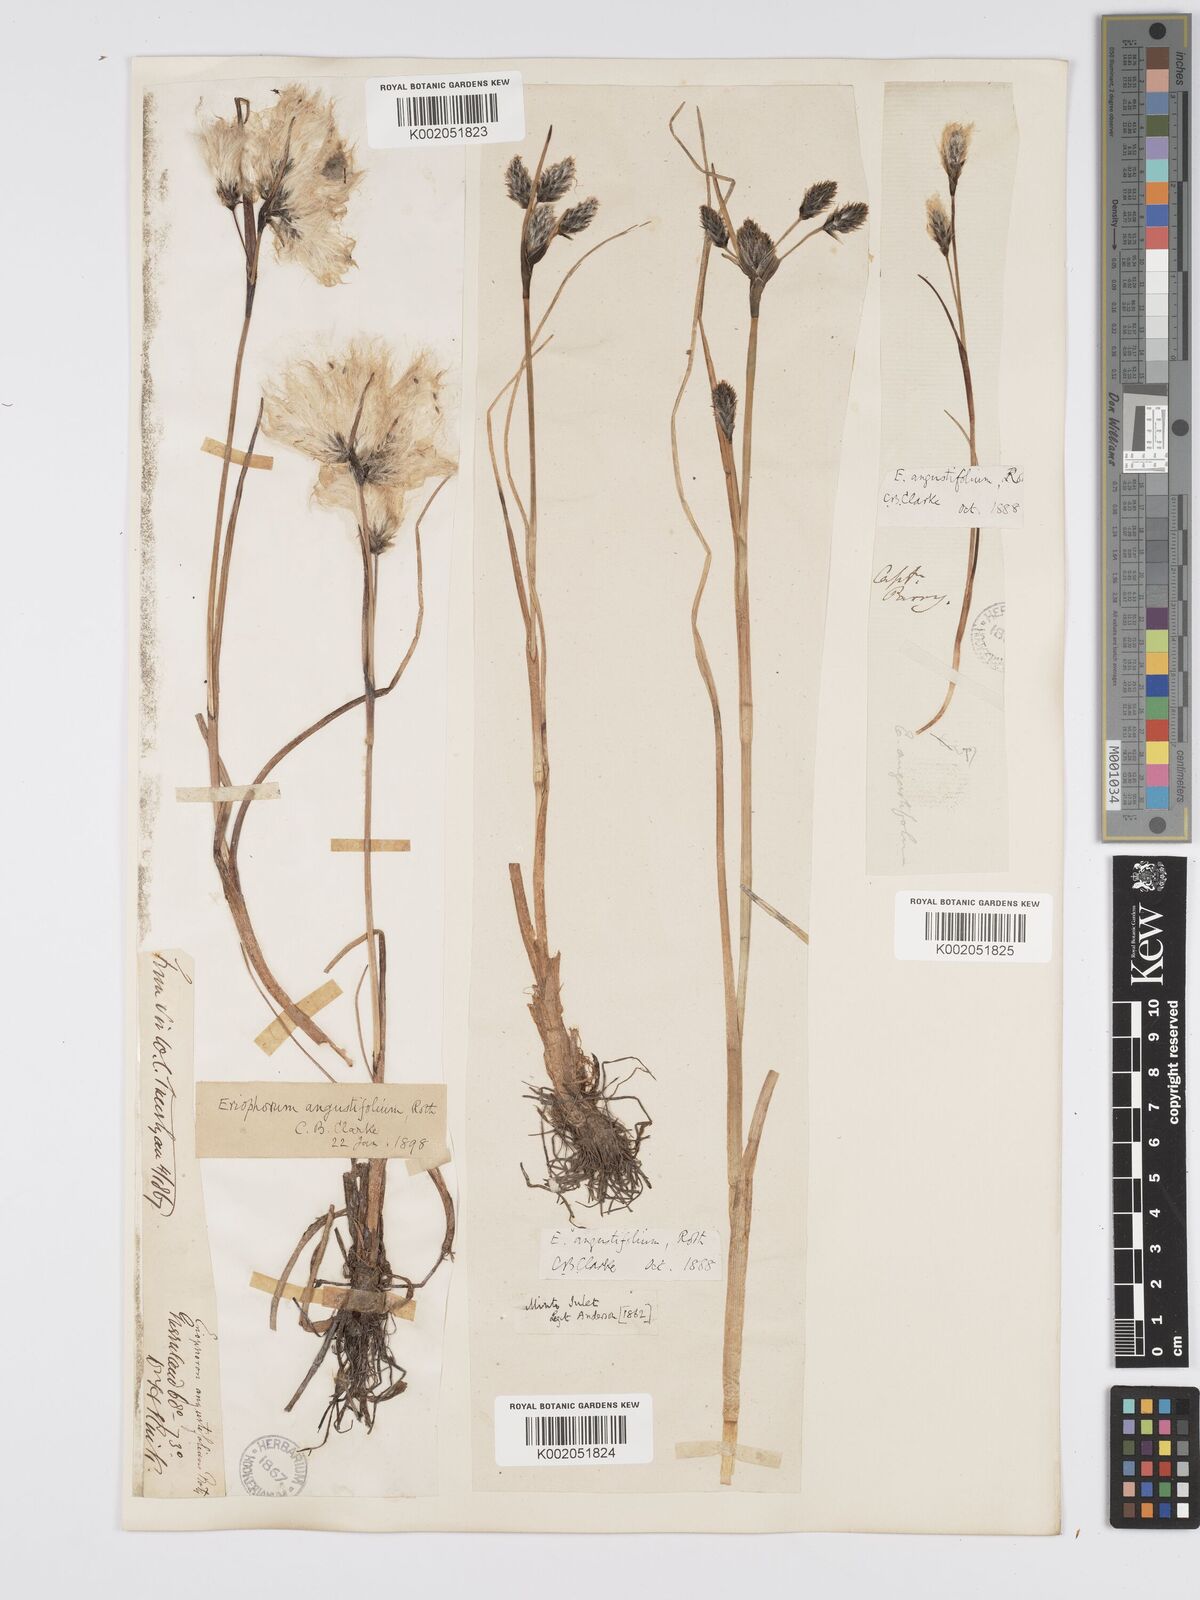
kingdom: Plantae
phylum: Tracheophyta
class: Liliopsida
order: Poales
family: Cyperaceae
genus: Eriophorum
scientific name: Eriophorum angustifolium
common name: Common cottongrass
